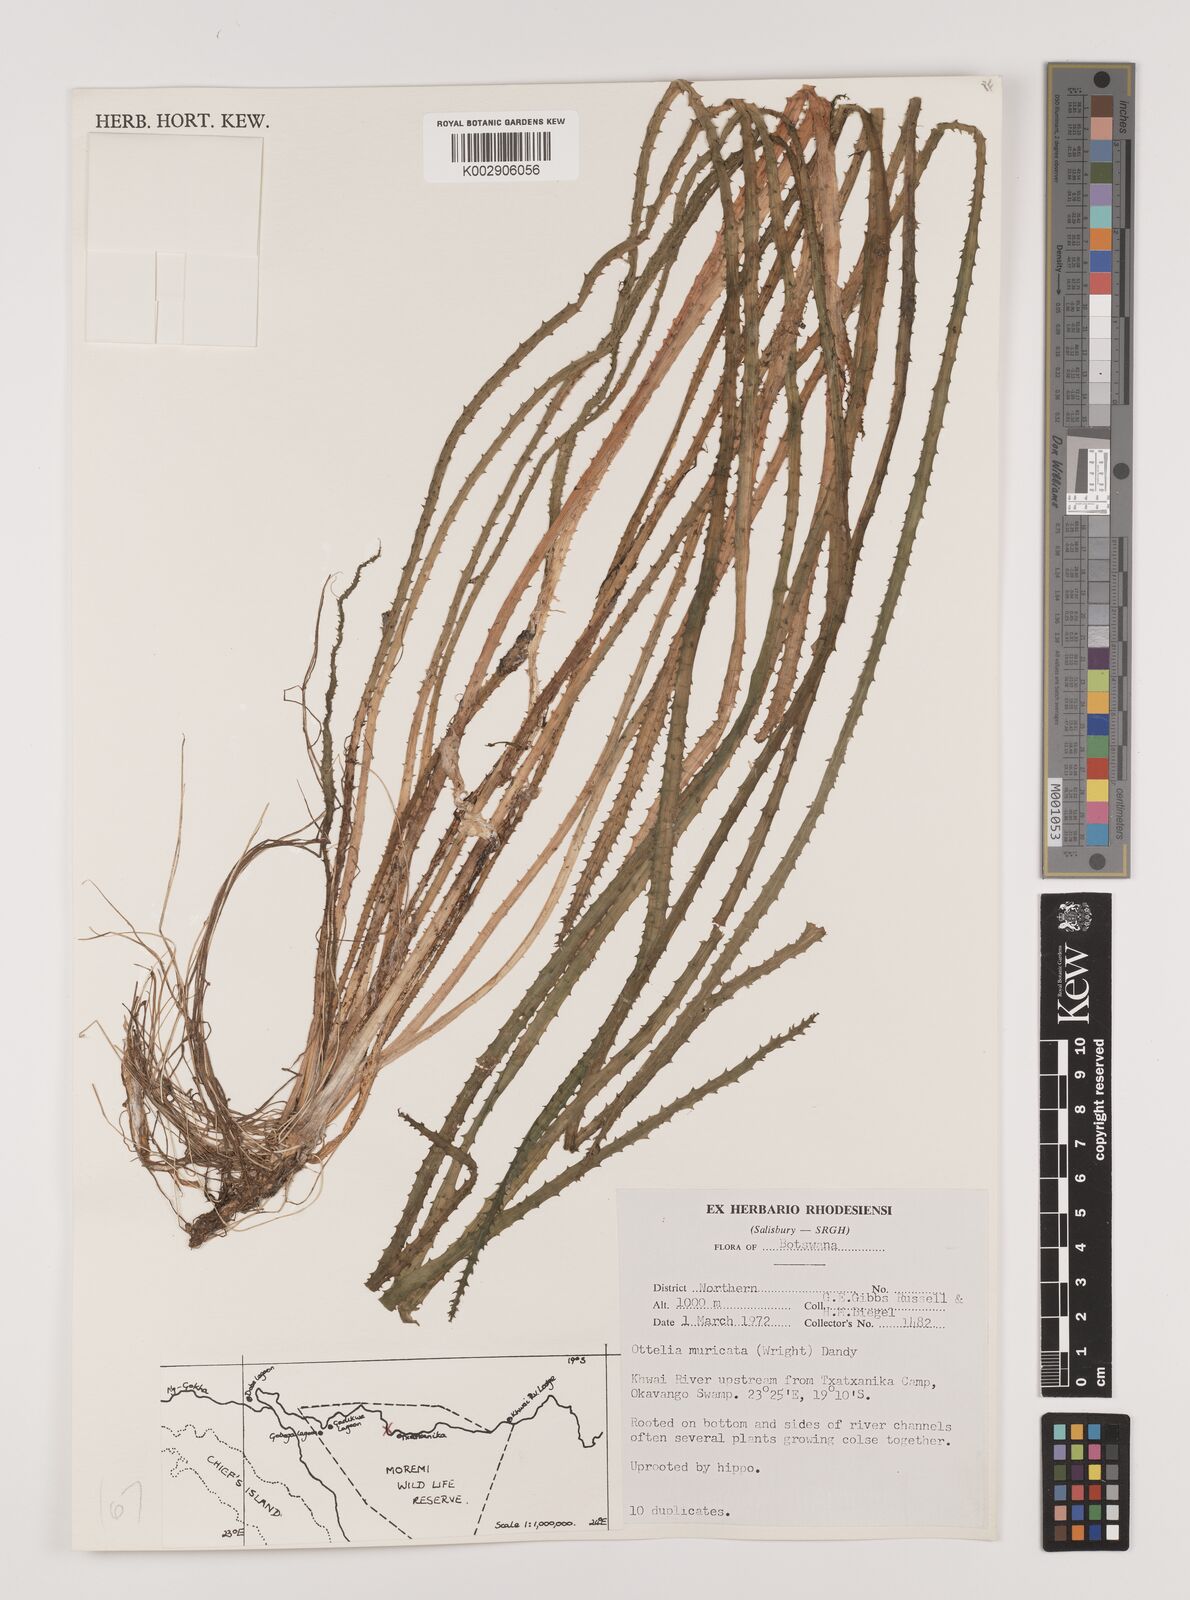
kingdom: Plantae
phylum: Tracheophyta
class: Liliopsida
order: Alismatales
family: Hydrocharitaceae
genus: Ottelia
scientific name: Ottelia muricata
